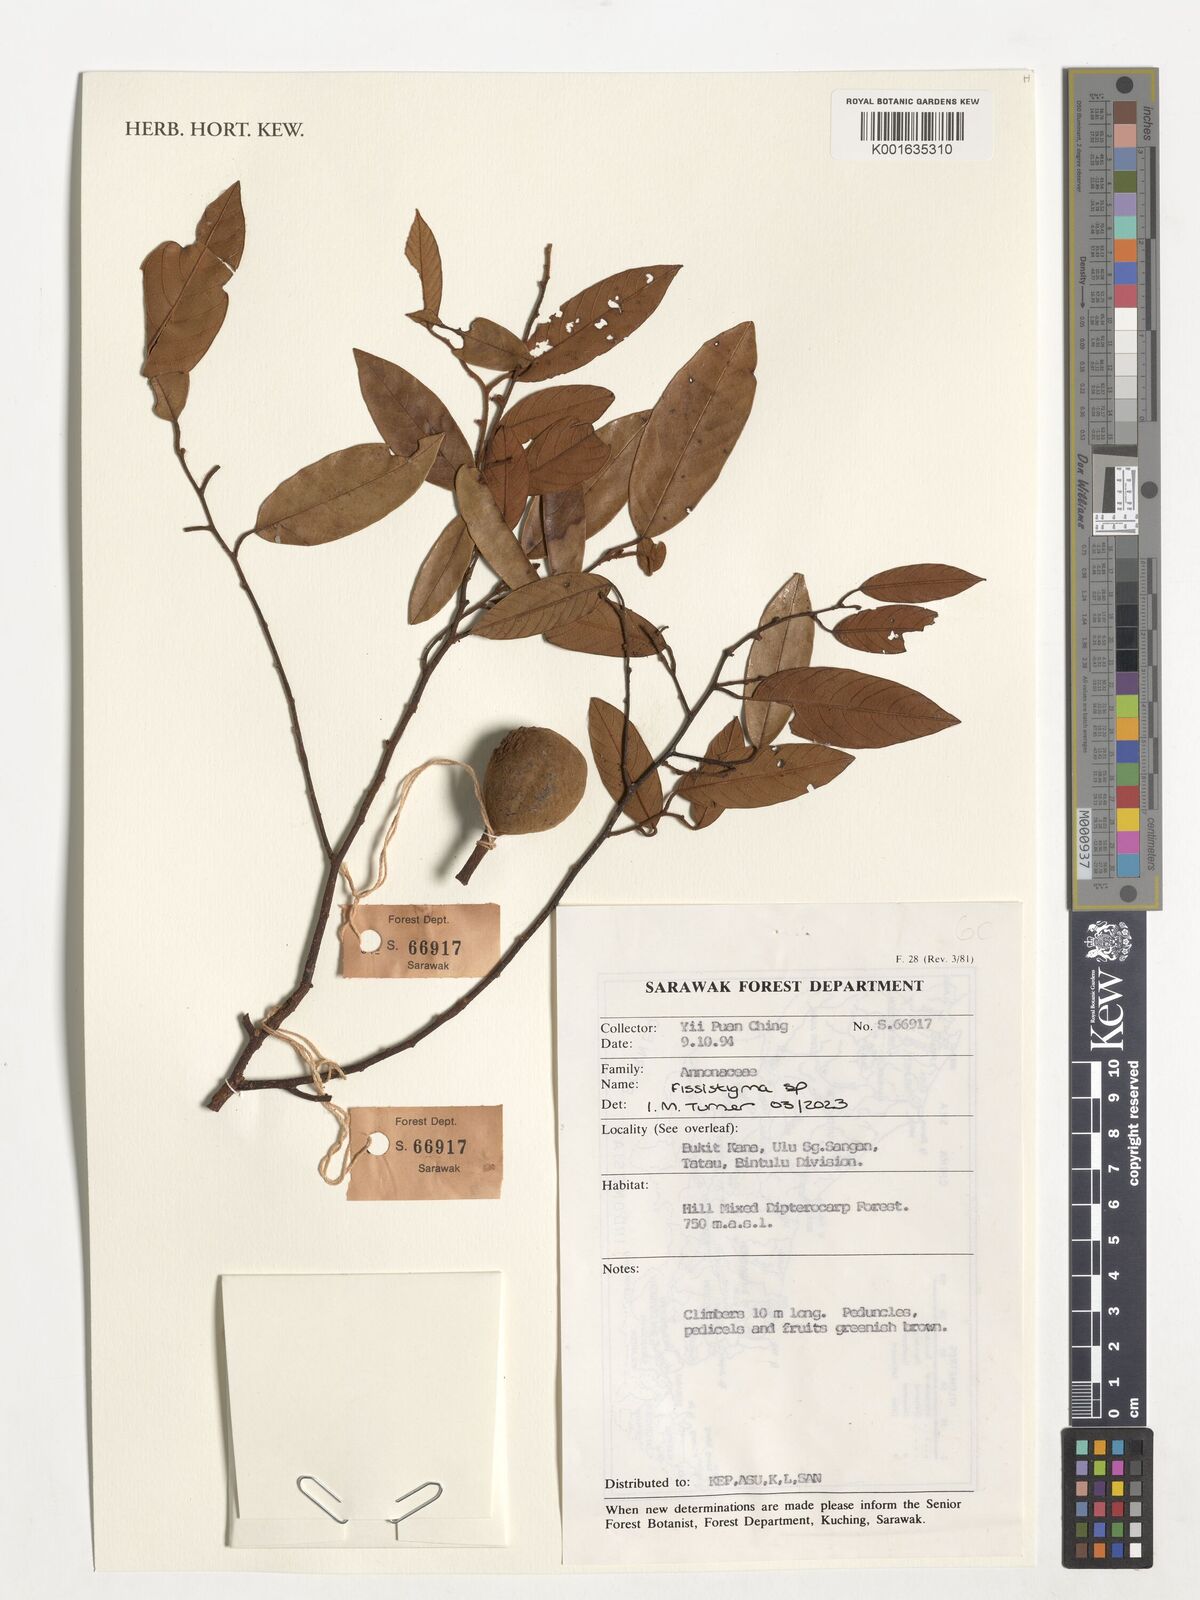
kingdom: Plantae
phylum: Tracheophyta
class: Magnoliopsida
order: Magnoliales
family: Annonaceae
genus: Fissistigma
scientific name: Fissistigma
